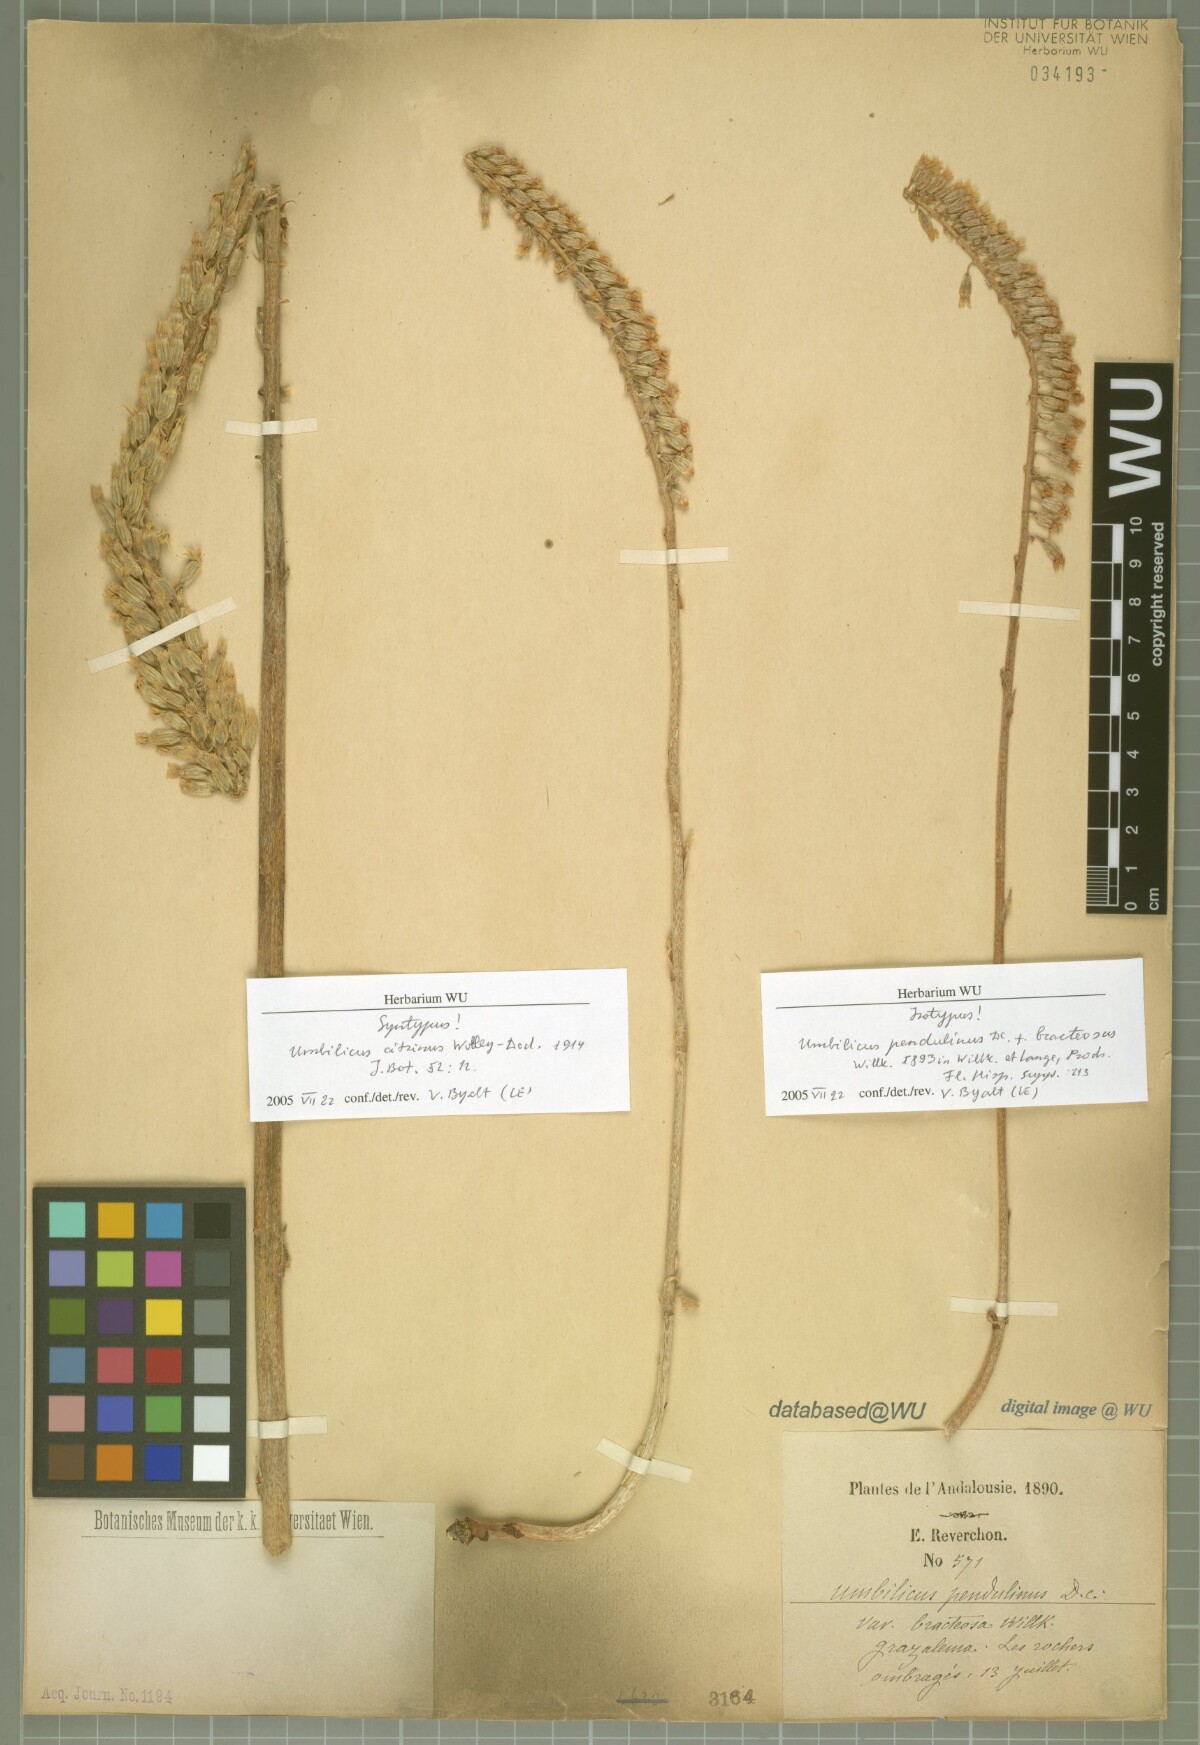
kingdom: Plantae
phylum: Tracheophyta
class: Magnoliopsida
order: Saxifragales
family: Crassulaceae
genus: Umbilicus
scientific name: Umbilicus heylandianus
